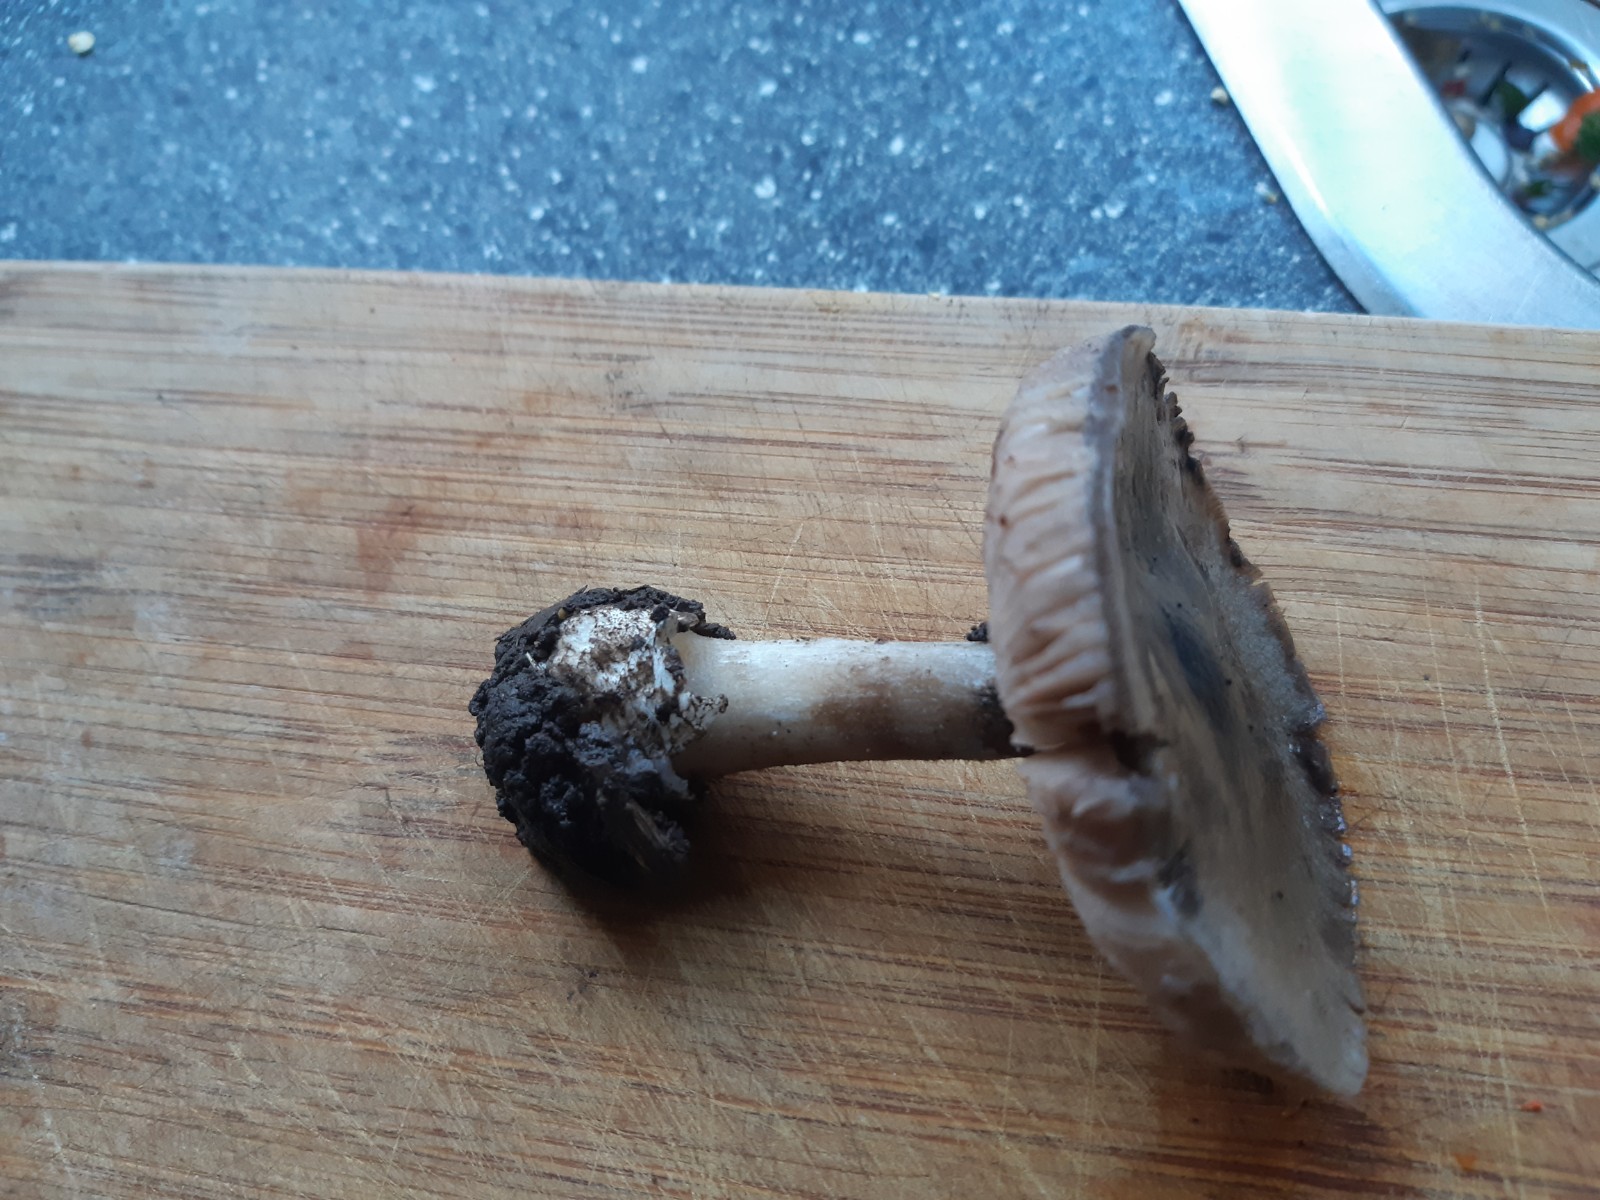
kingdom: Fungi
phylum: Basidiomycota
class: Agaricomycetes
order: Agaricales
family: Pluteaceae
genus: Volvopluteus
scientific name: Volvopluteus gloiocephalus
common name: høj posesvamp
